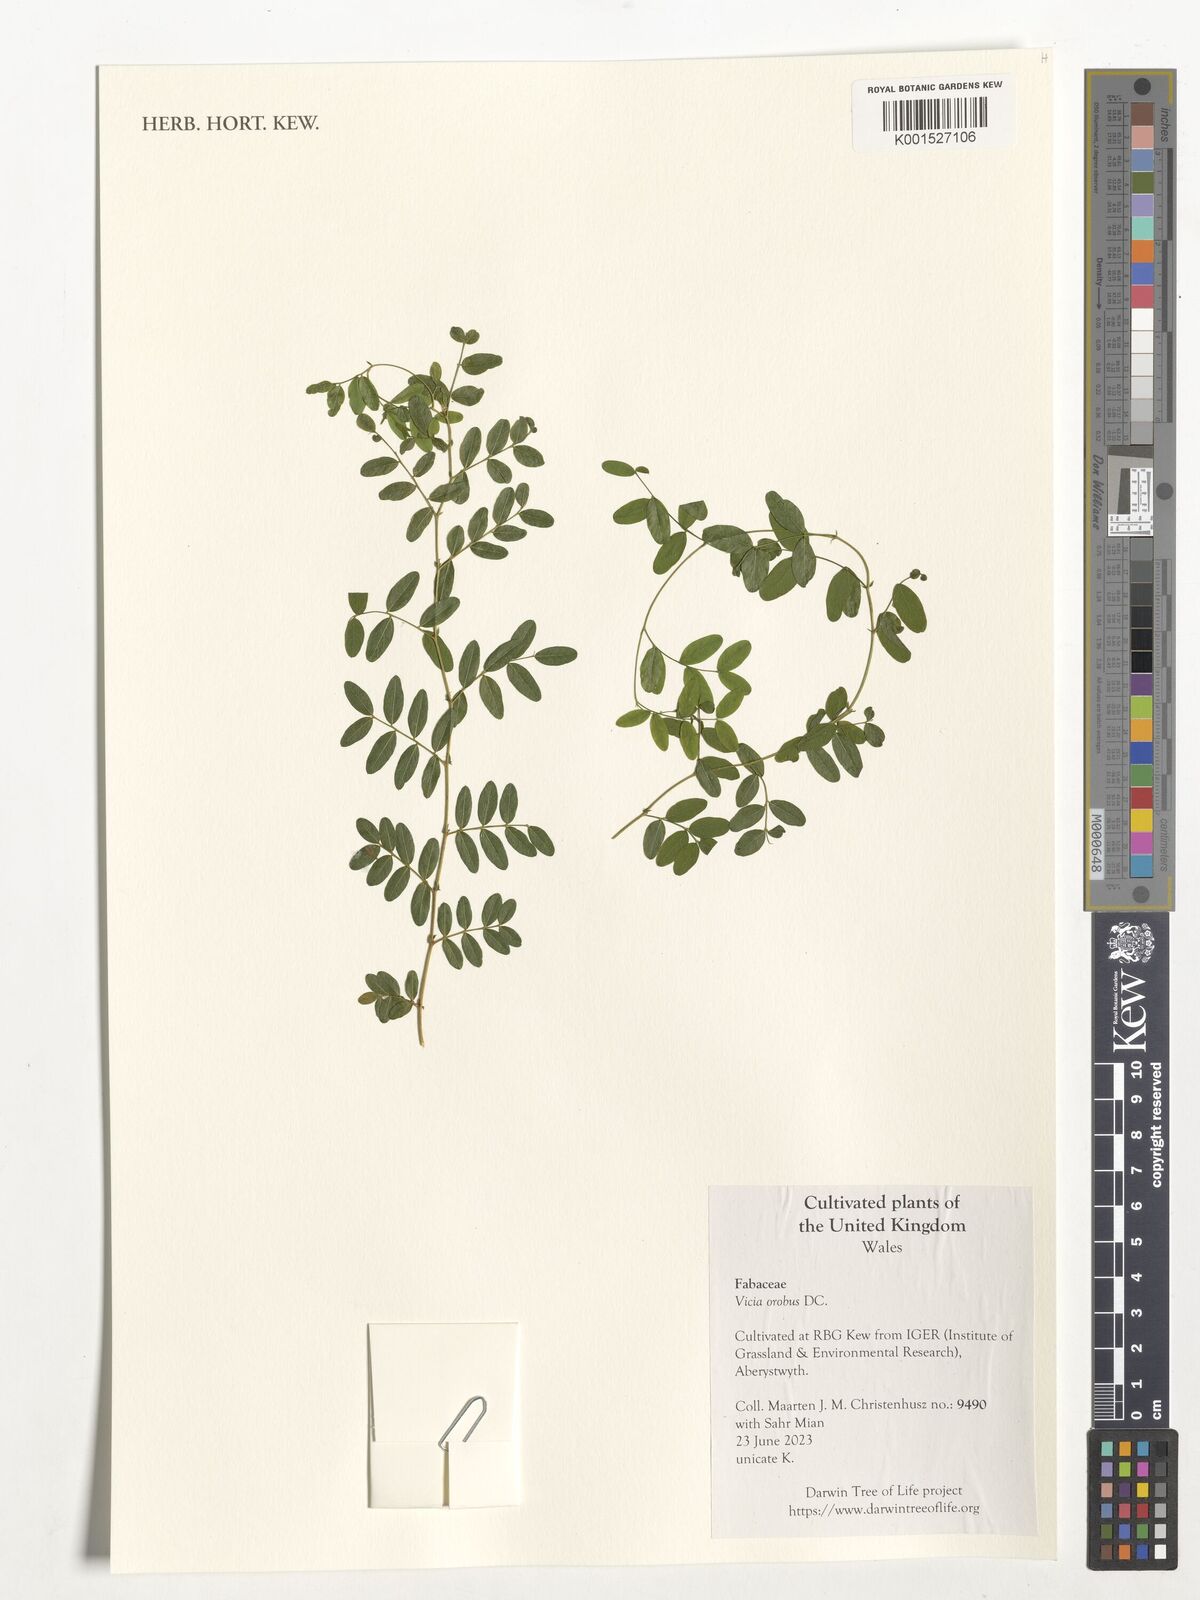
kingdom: Plantae
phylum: Tracheophyta
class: Magnoliopsida
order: Fabales
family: Fabaceae
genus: Vicia
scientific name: Vicia orobus
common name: Wood bitter-vetch
